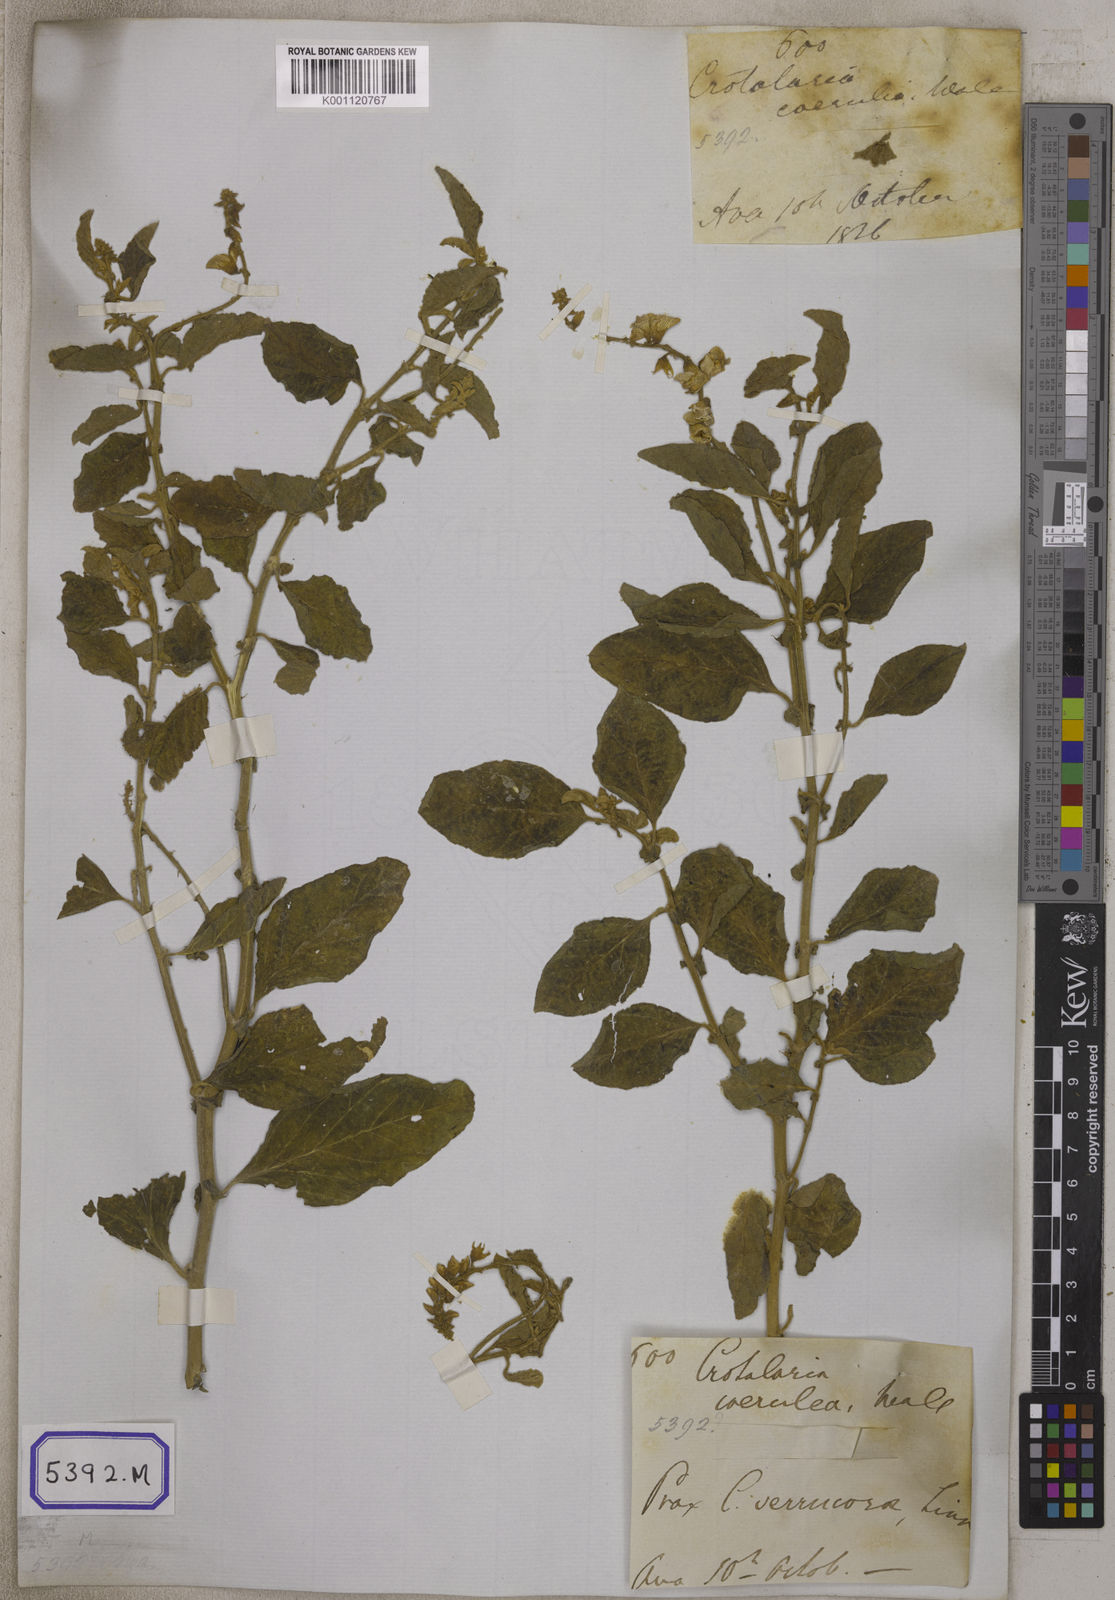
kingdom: Plantae
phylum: Tracheophyta
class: Magnoliopsida
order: Fabales
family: Fabaceae
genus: Crotalaria
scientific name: Crotalaria verrucosa
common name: Blue rattlesnake
